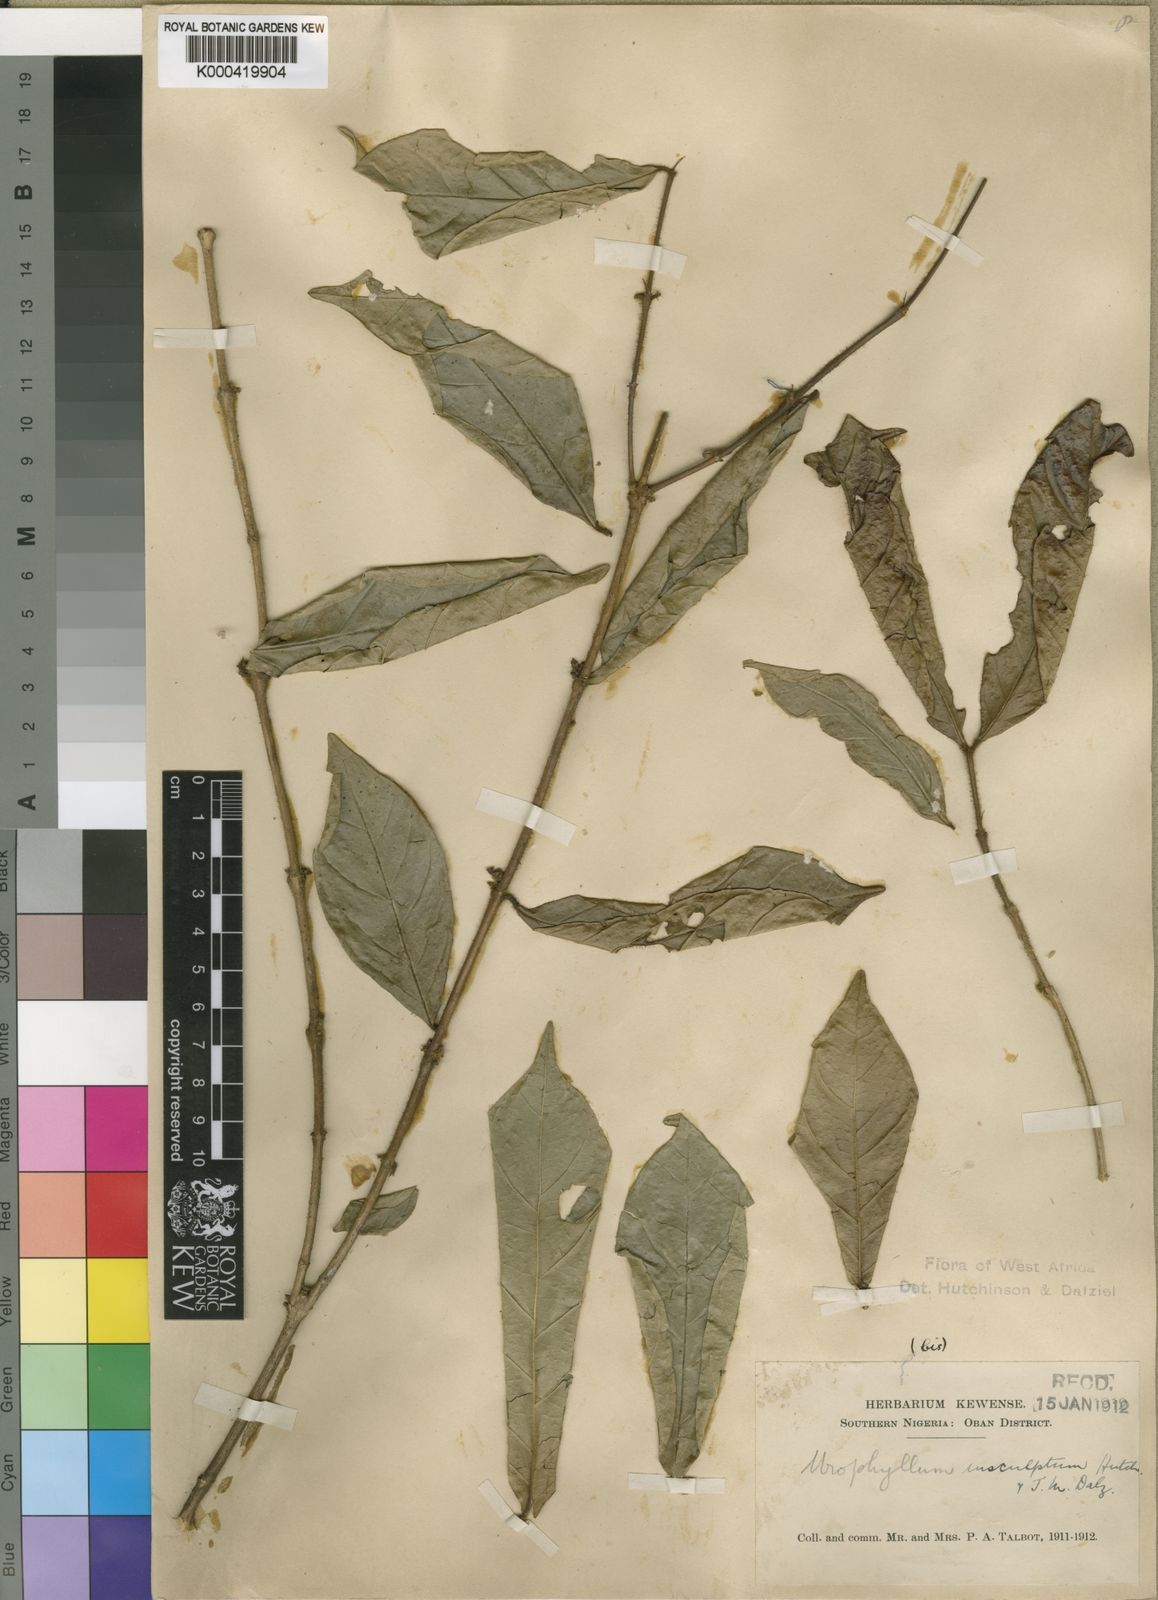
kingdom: Plantae
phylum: Tracheophyta
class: Magnoliopsida
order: Gentianales
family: Rubiaceae
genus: Empogona
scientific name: Empogona talbotii
